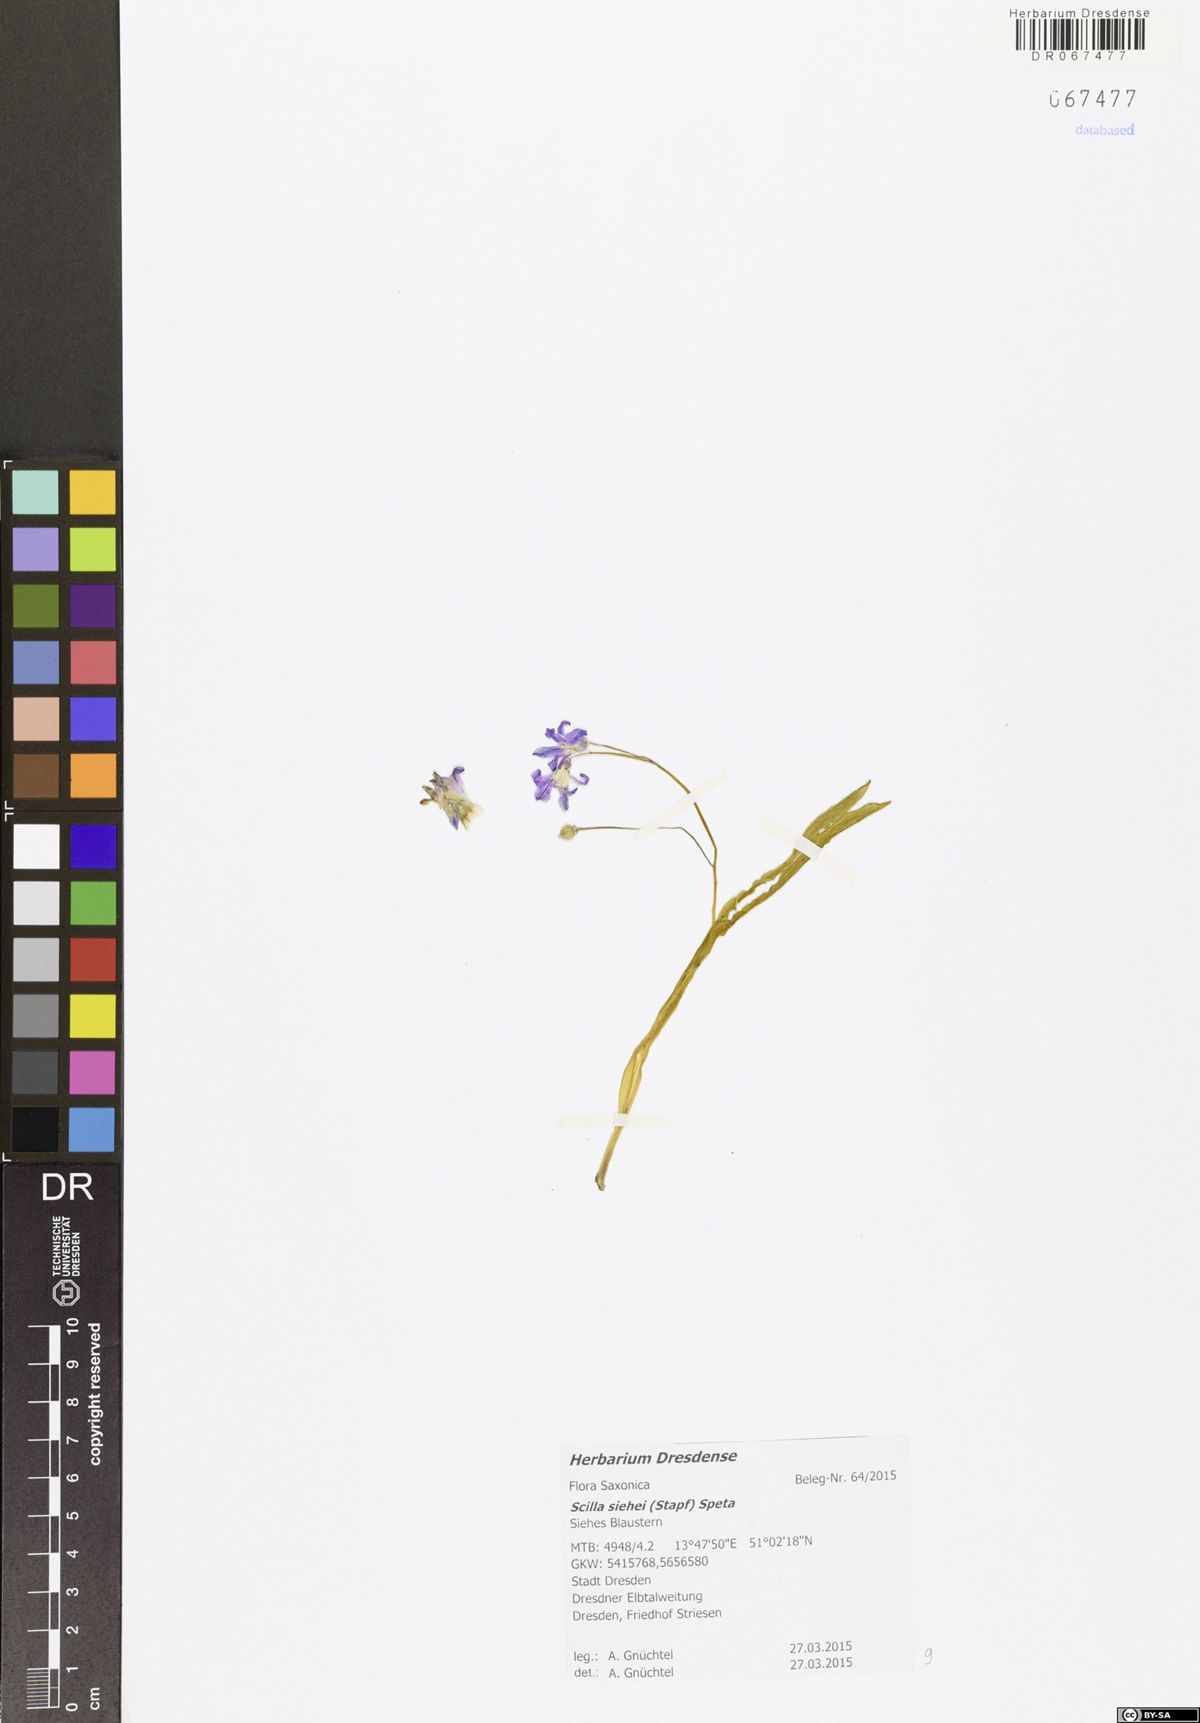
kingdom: Plantae
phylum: Tracheophyta
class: Liliopsida
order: Asparagales
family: Asparagaceae
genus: Scilla
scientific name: Scilla siberica
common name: Siberian squill
